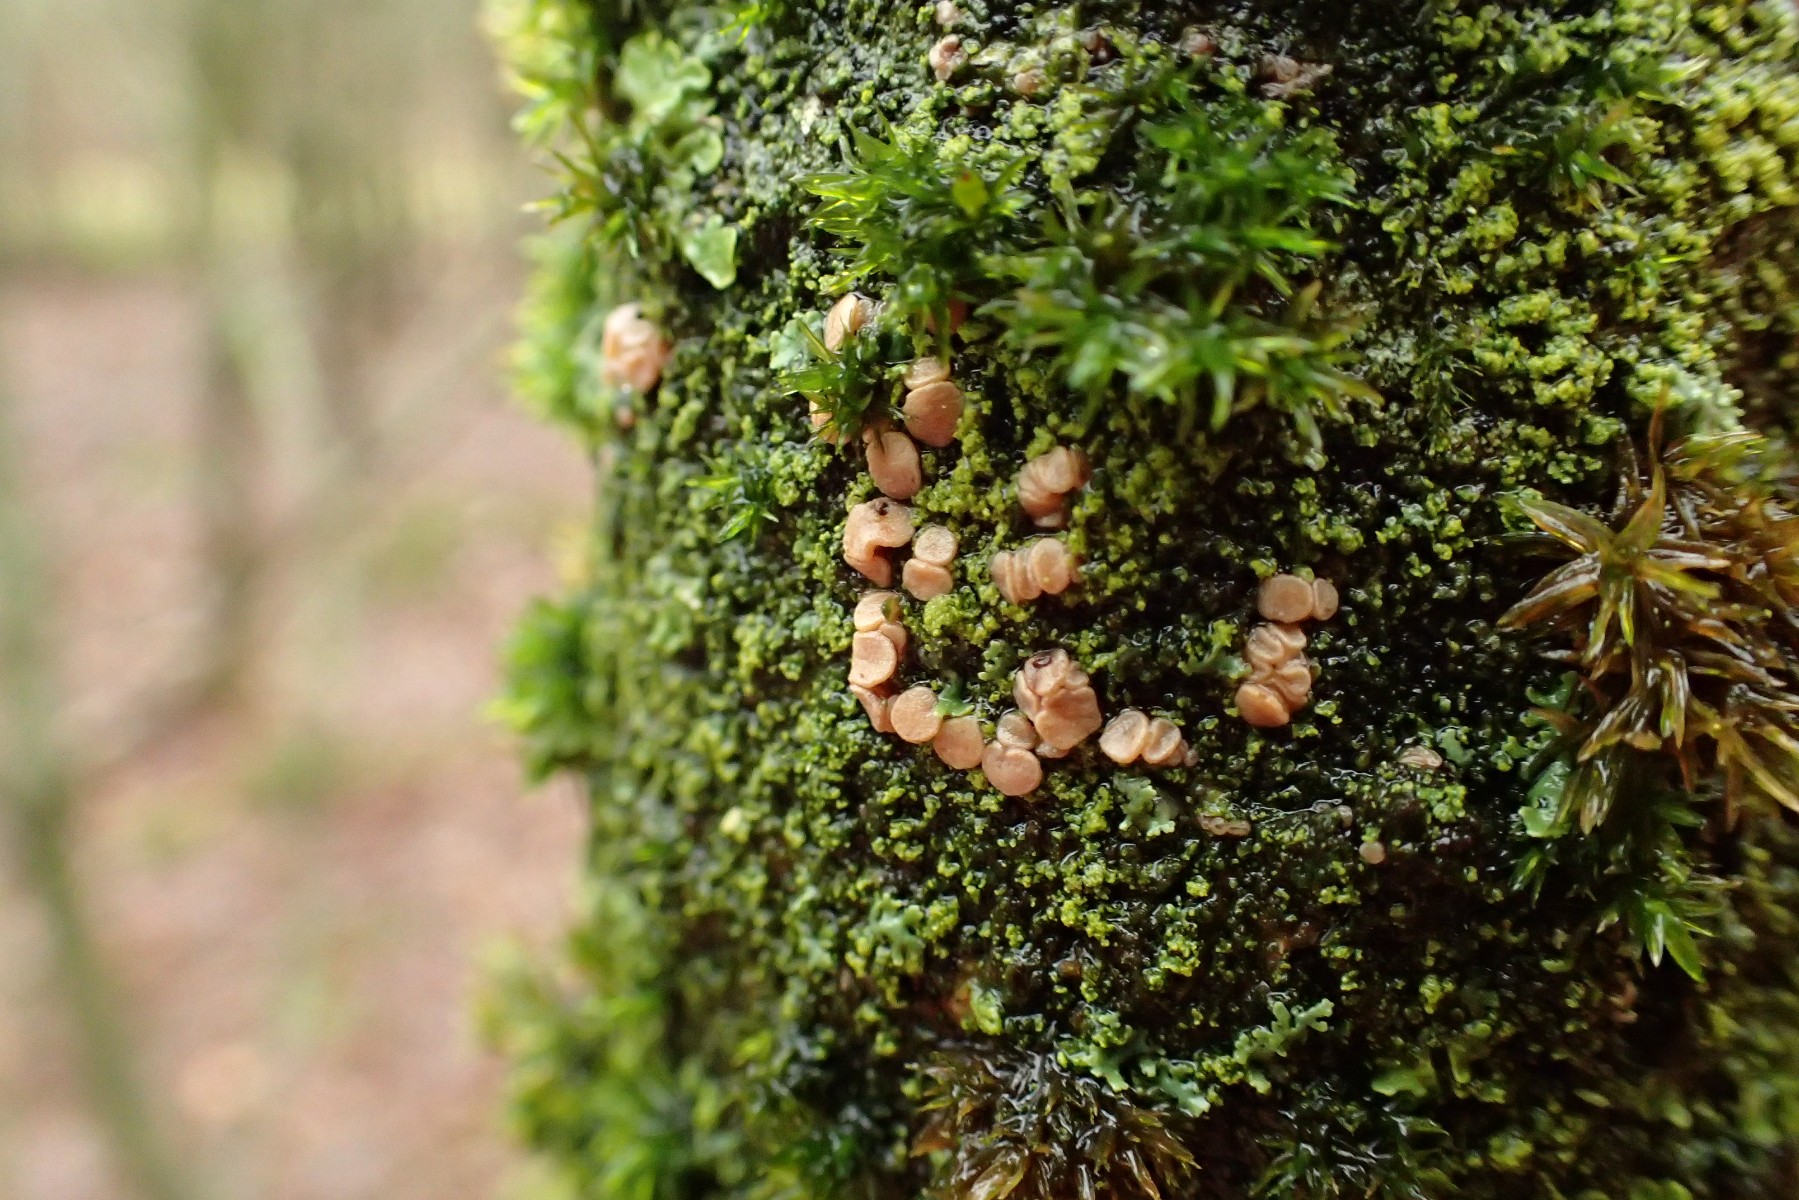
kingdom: Fungi
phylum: Ascomycota
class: Leotiomycetes
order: Helotiales
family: Dermateaceae
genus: Pezicula
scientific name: Pezicula cinnamomea
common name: kanel-klyngeskive
